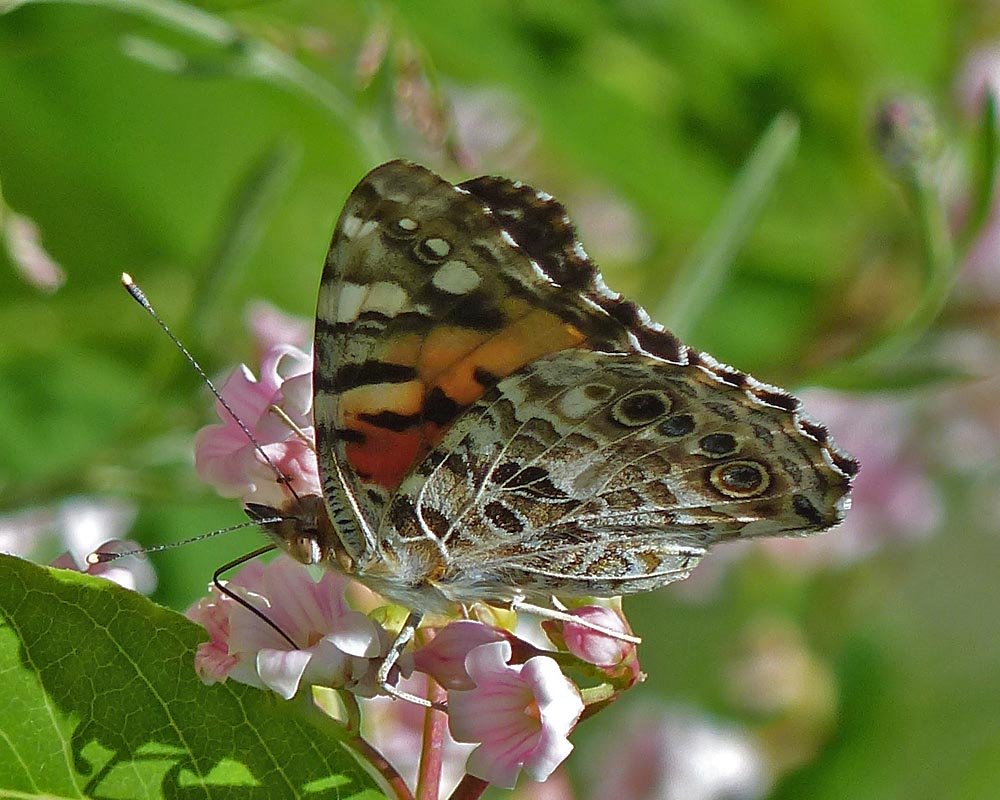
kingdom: Animalia
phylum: Arthropoda
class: Insecta
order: Lepidoptera
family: Nymphalidae
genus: Vanessa
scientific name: Vanessa cardui
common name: Painted Lady
